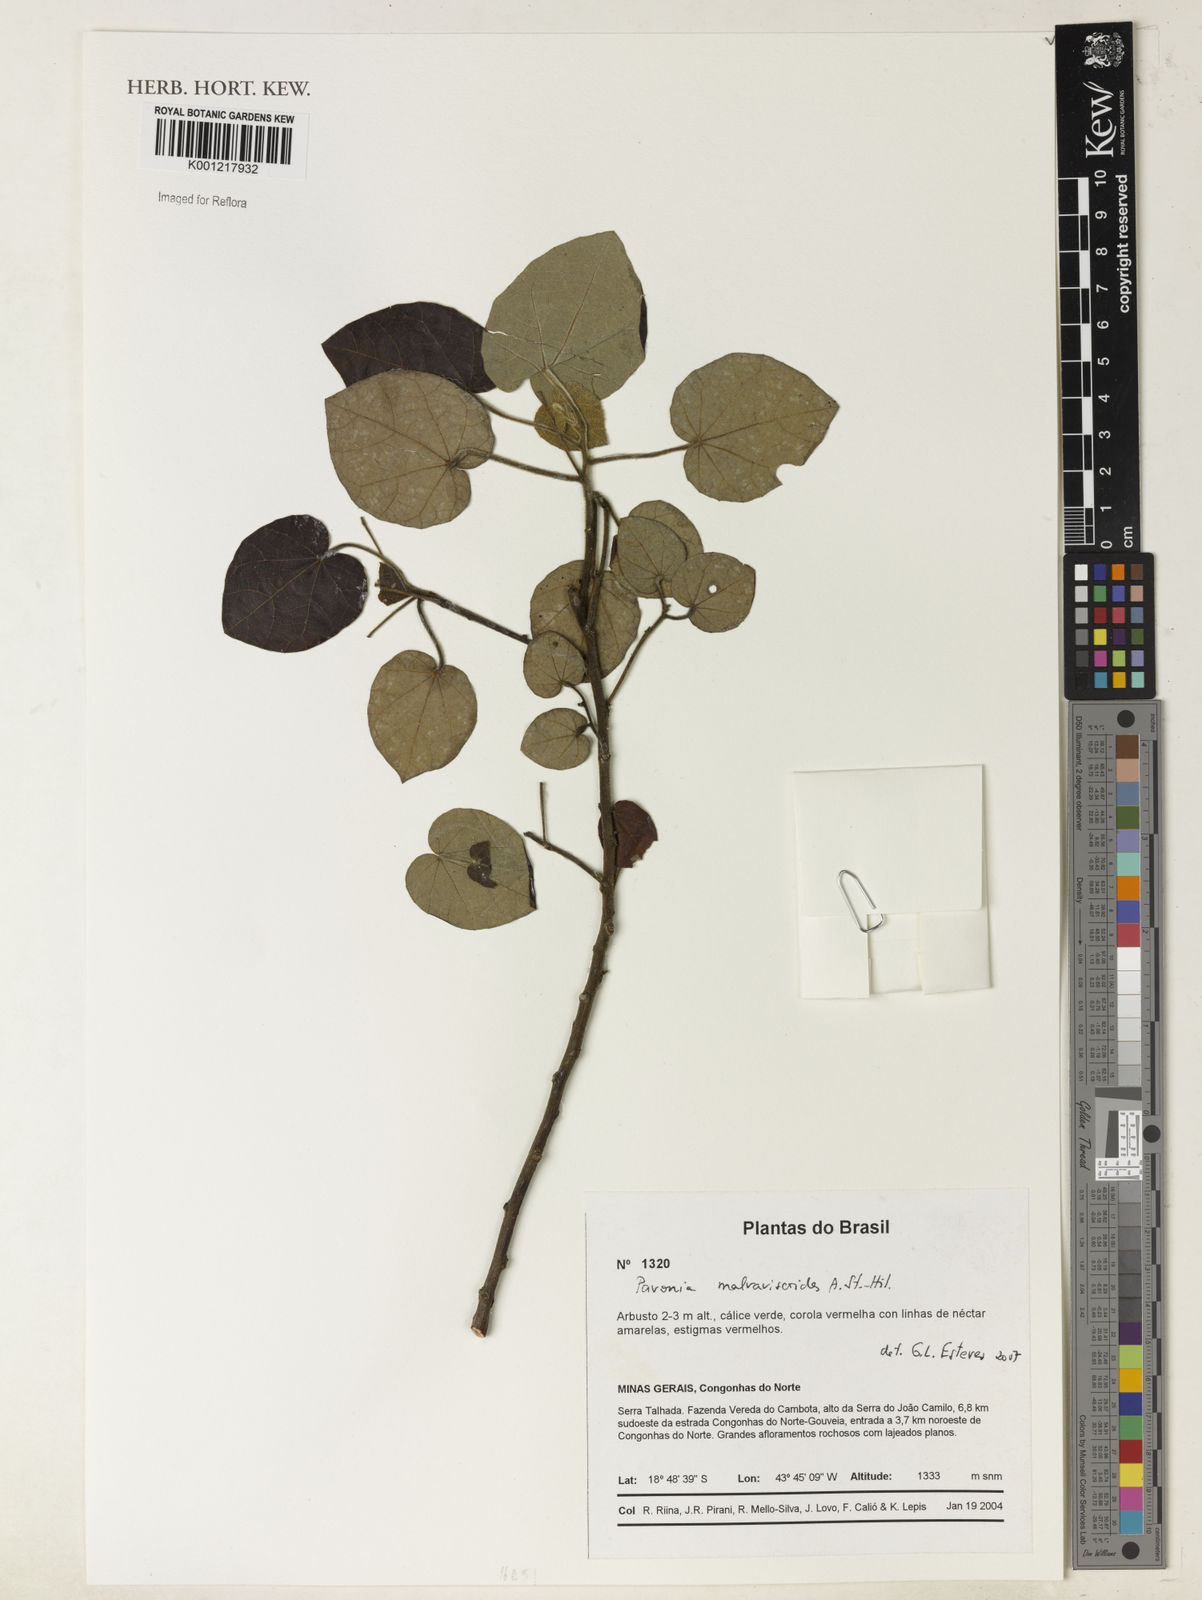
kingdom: Plantae
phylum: Tracheophyta
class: Magnoliopsida
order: Malvales
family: Malvaceae
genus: Pavonia
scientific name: Pavonia malvaviscoides
